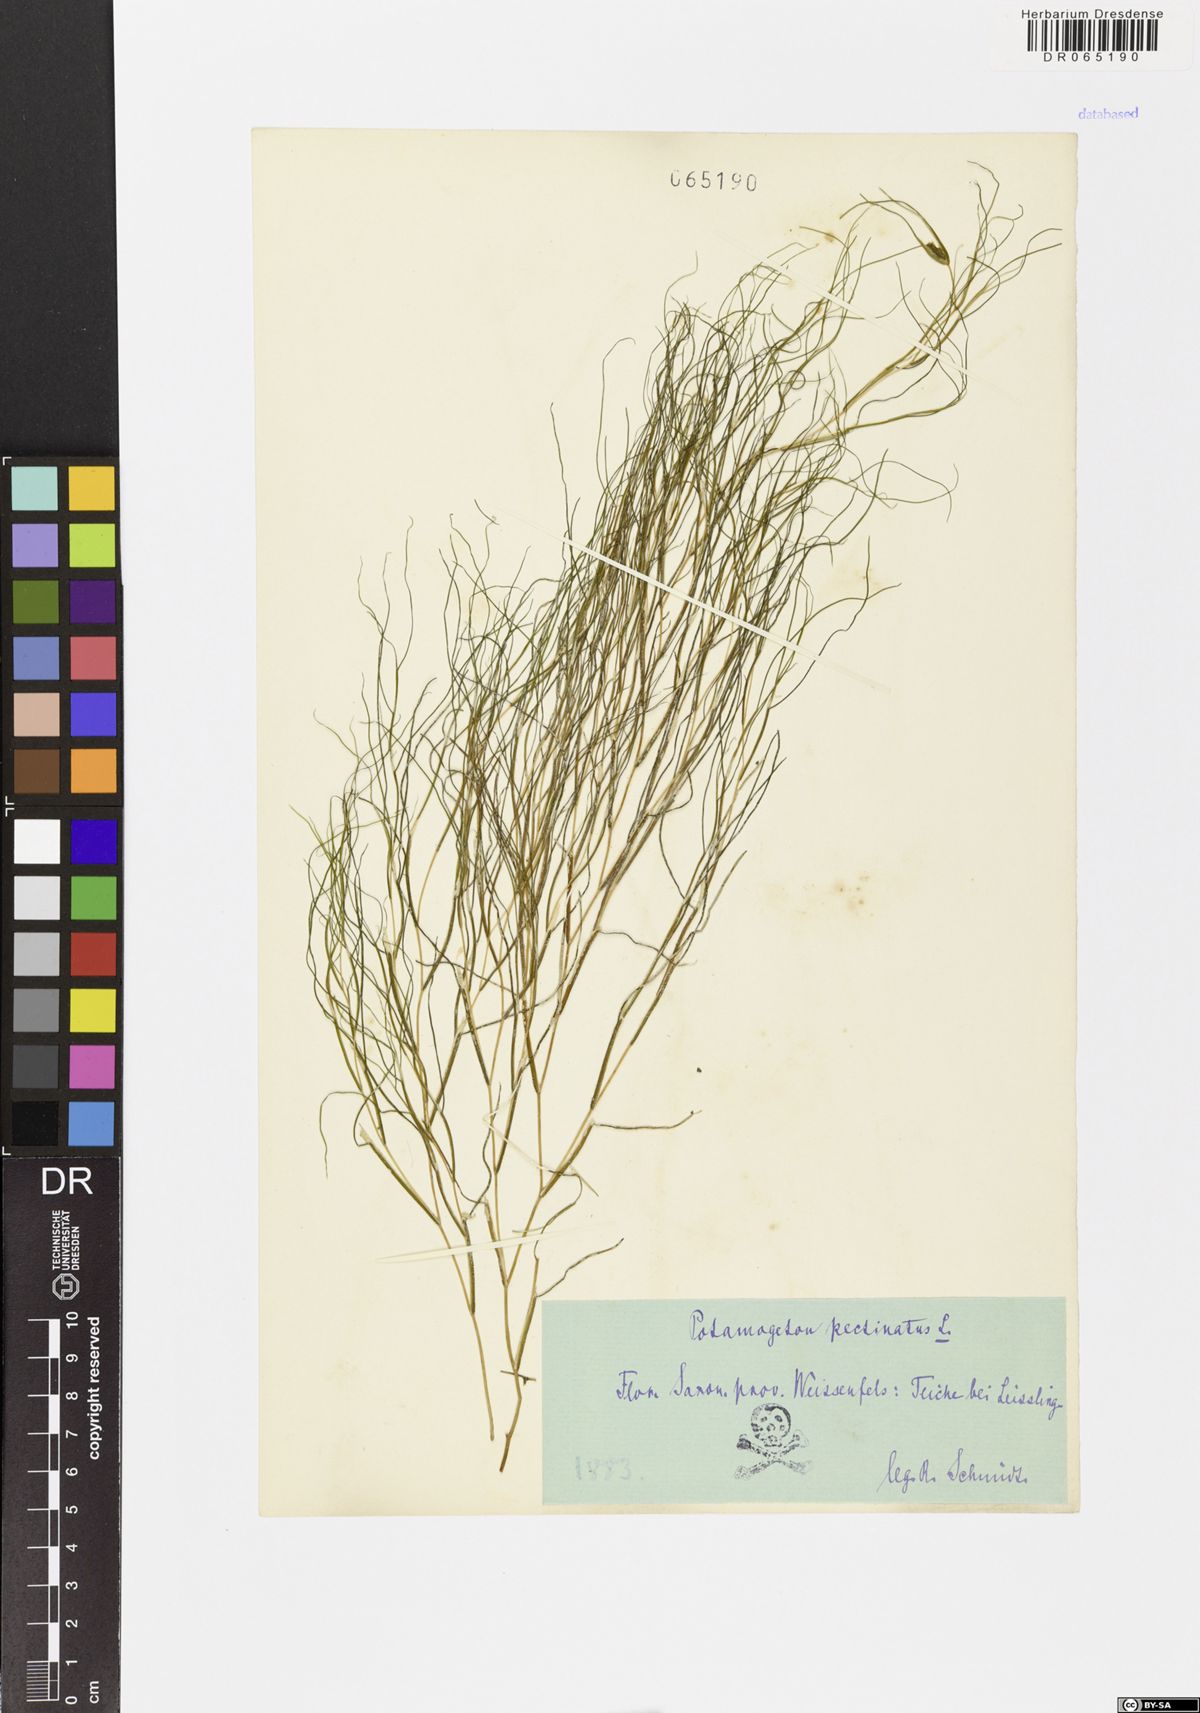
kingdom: Plantae
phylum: Tracheophyta
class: Liliopsida
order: Alismatales
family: Potamogetonaceae
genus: Stuckenia
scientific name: Stuckenia pectinata
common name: Sago pondweed
